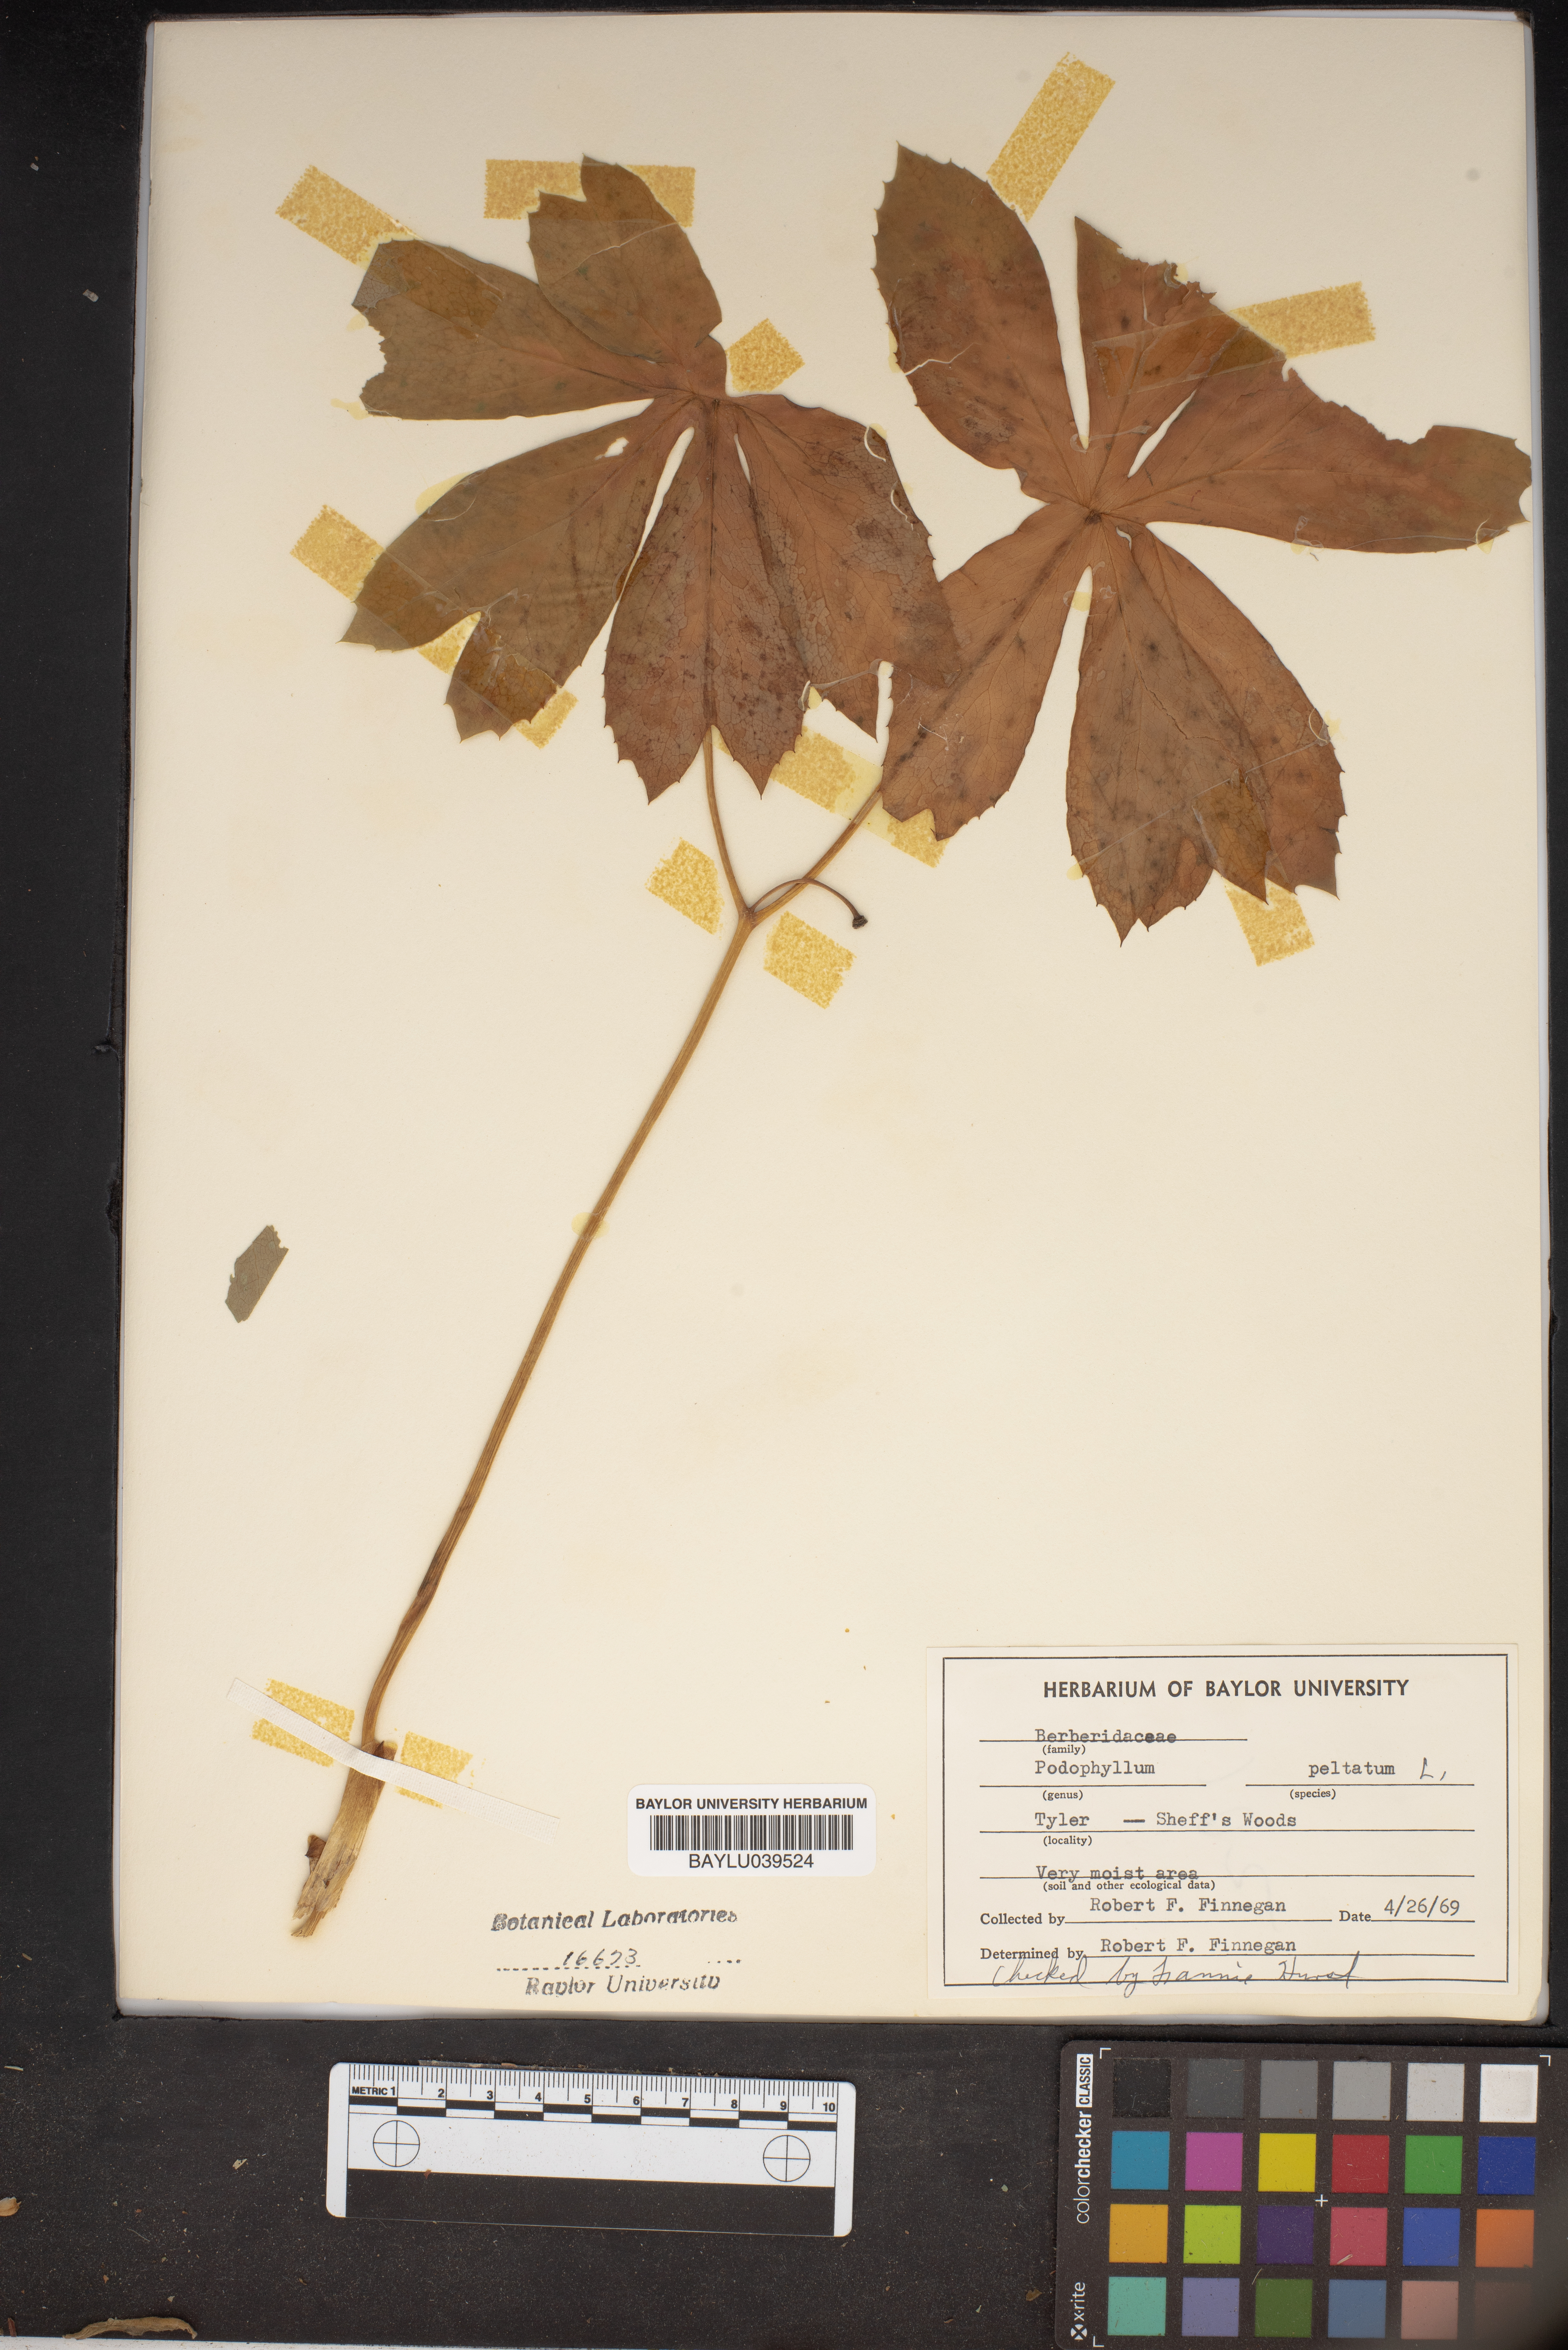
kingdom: Plantae
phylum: Tracheophyta
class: Magnoliopsida
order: Ranunculales
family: Berberidaceae
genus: Podophyllum
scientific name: Podophyllum peltatum
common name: Wild mandrake
